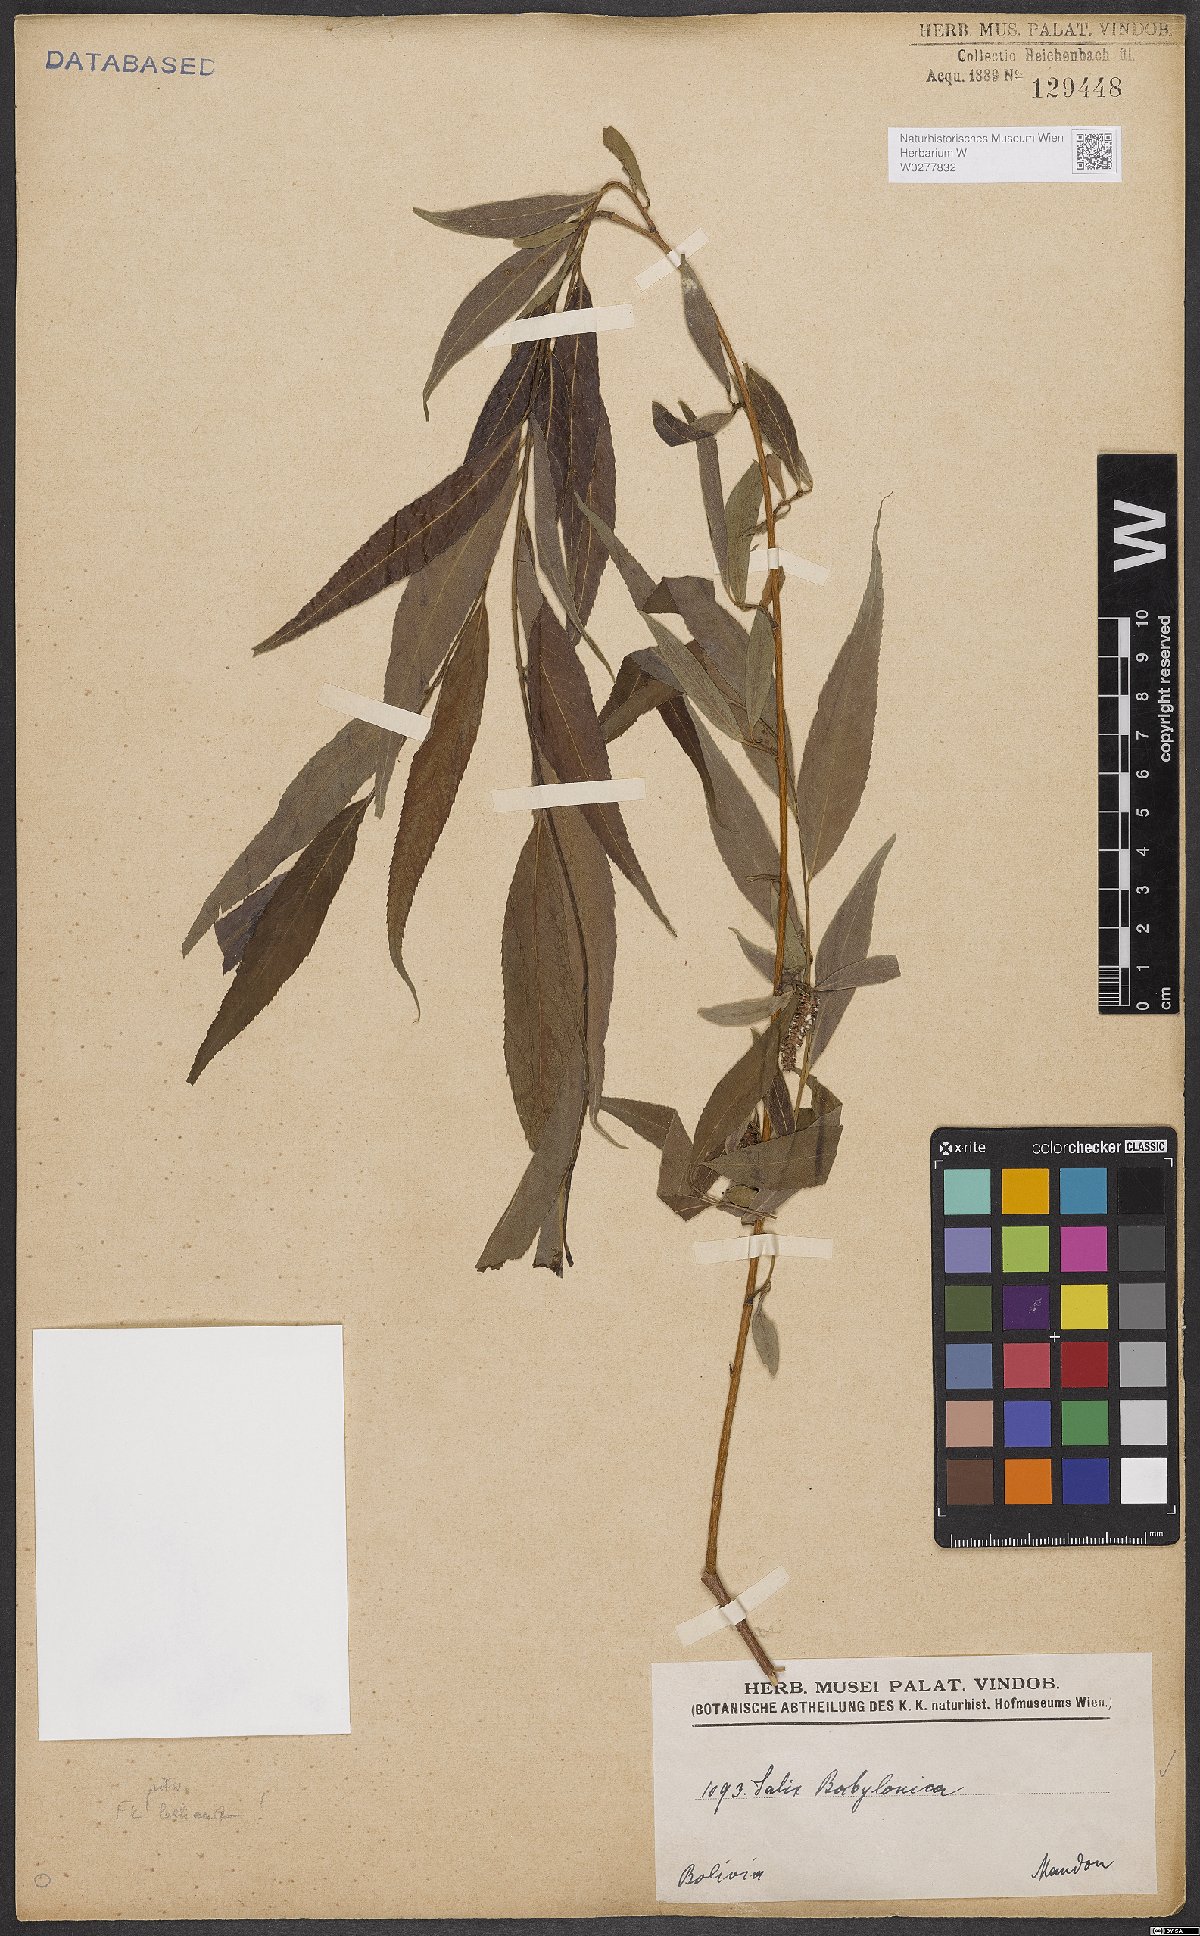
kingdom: Plantae
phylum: Tracheophyta
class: Magnoliopsida
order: Malpighiales
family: Salicaceae
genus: Salix
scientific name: Salix babylonica
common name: Weeping willow
